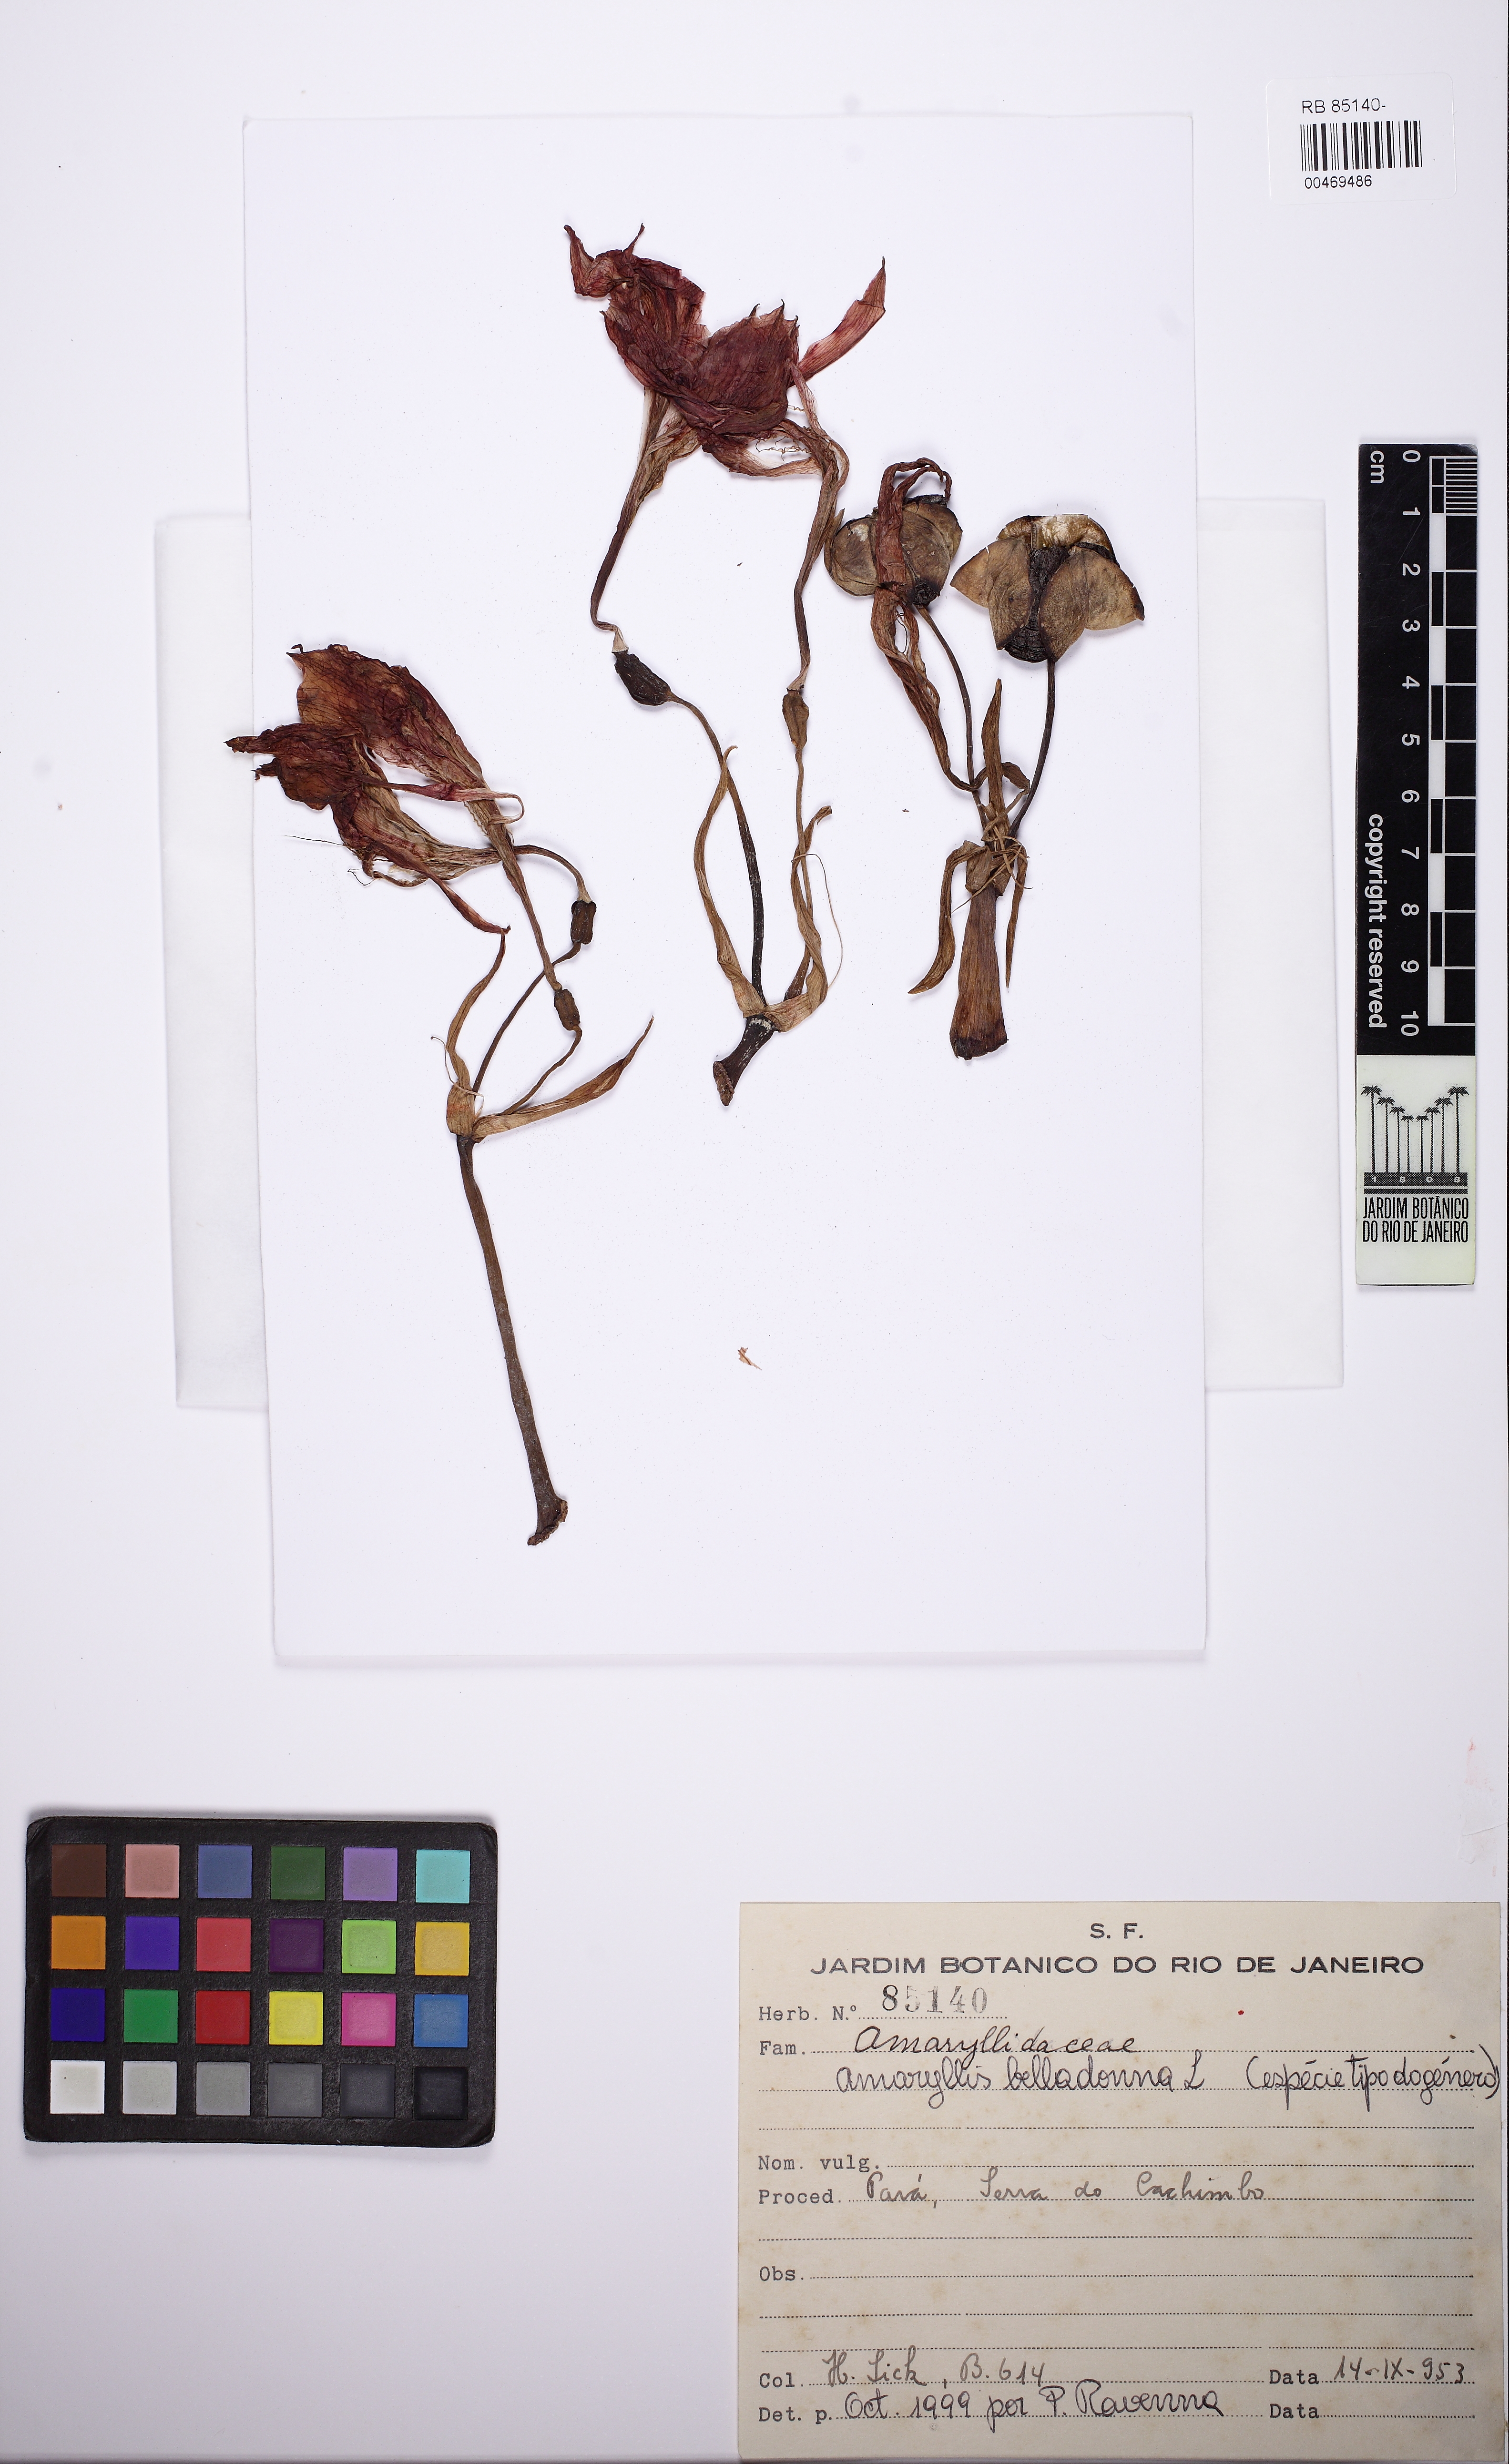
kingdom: Plantae
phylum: Tracheophyta
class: Liliopsida
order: Asparagales
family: Amaryllidaceae
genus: Hippeastrum
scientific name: Hippeastrum puniceum
